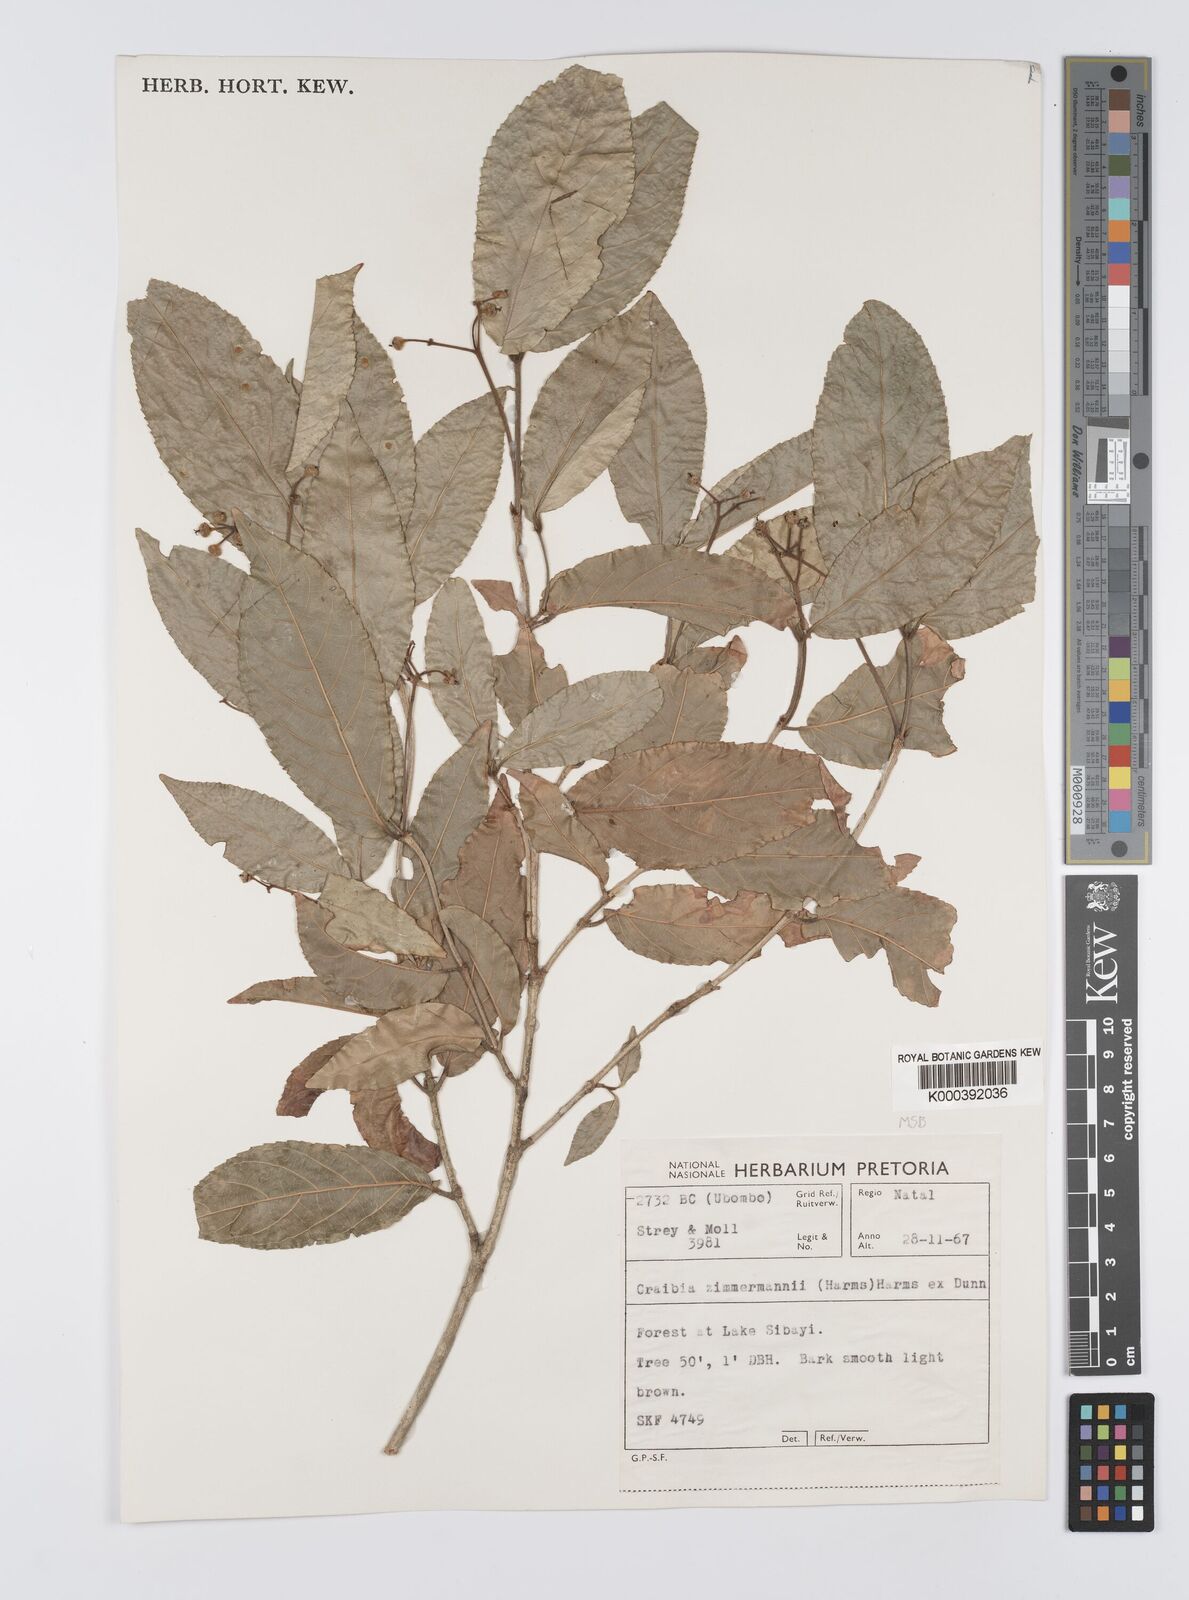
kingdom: Plantae
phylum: Tracheophyta
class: Magnoliopsida
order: Fabales
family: Fabaceae
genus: Craibia
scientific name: Craibia zimmermannii
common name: Sandforest pea-wood
